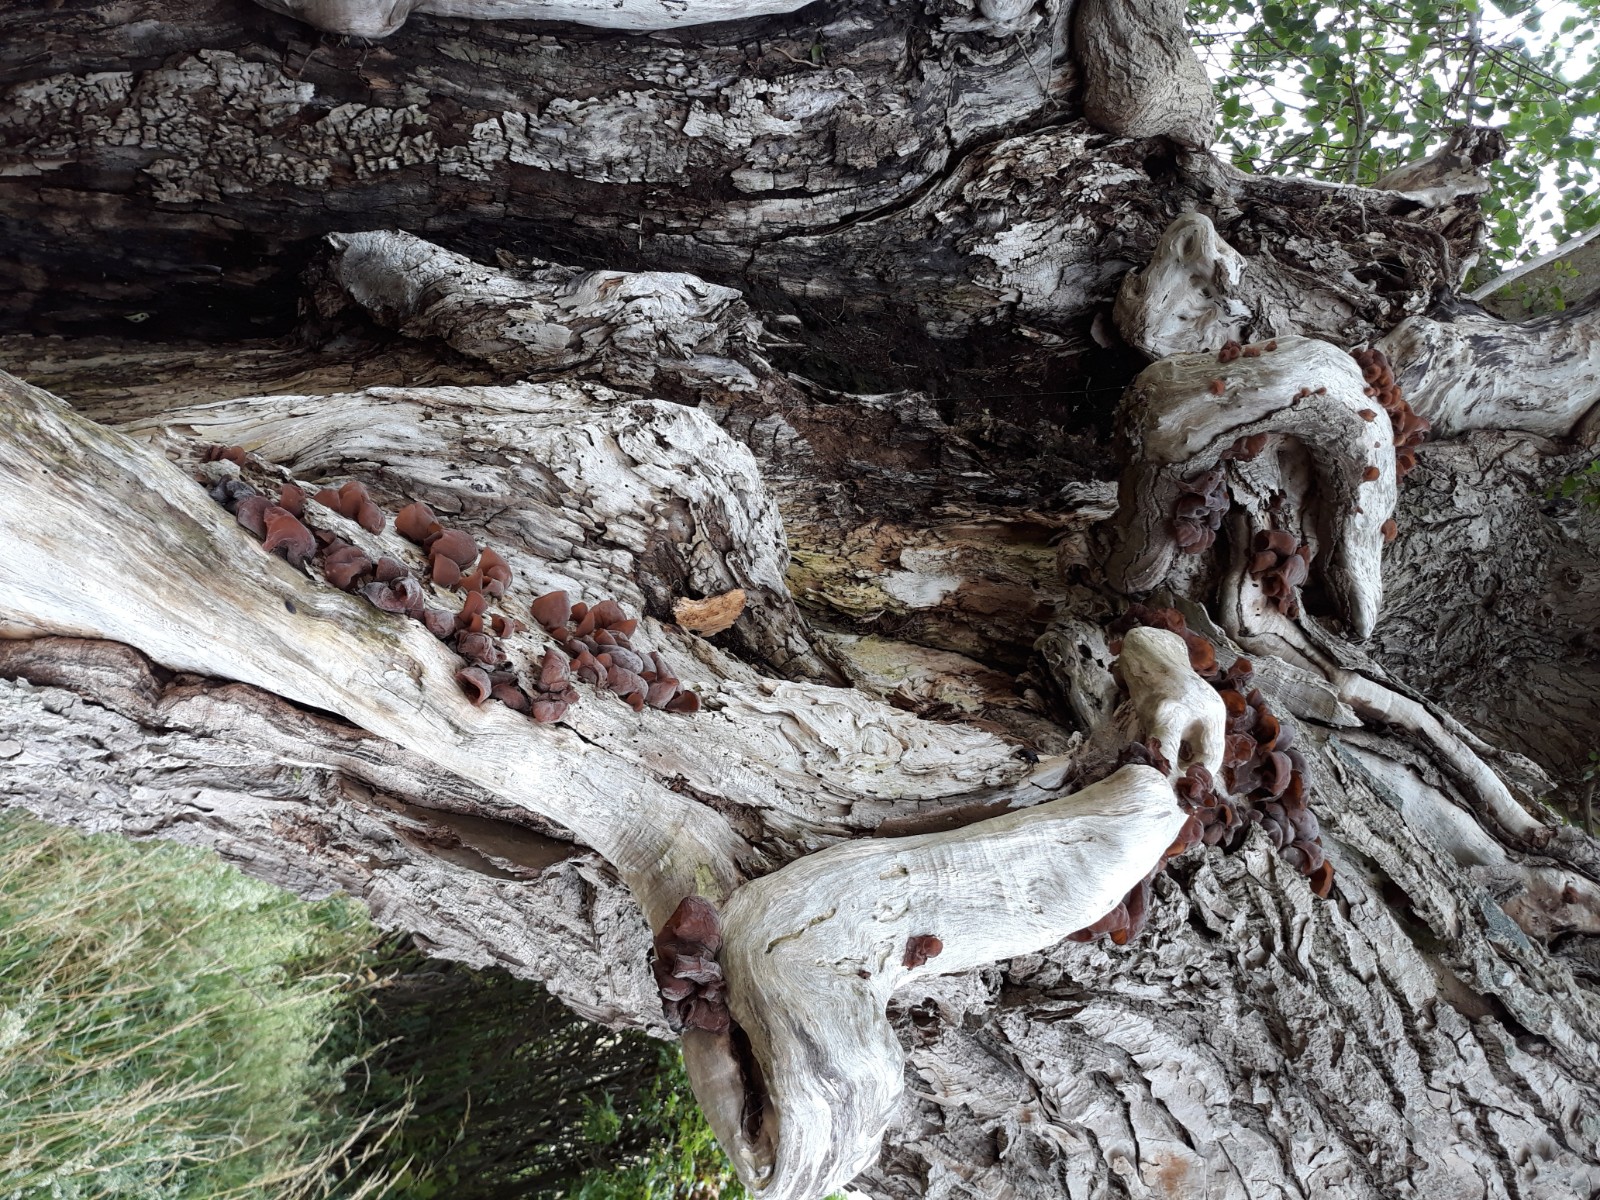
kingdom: Fungi
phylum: Basidiomycota
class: Agaricomycetes
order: Auriculariales
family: Auriculariaceae
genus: Auricularia
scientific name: Auricularia auricula-judae
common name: almindelig judasøre
